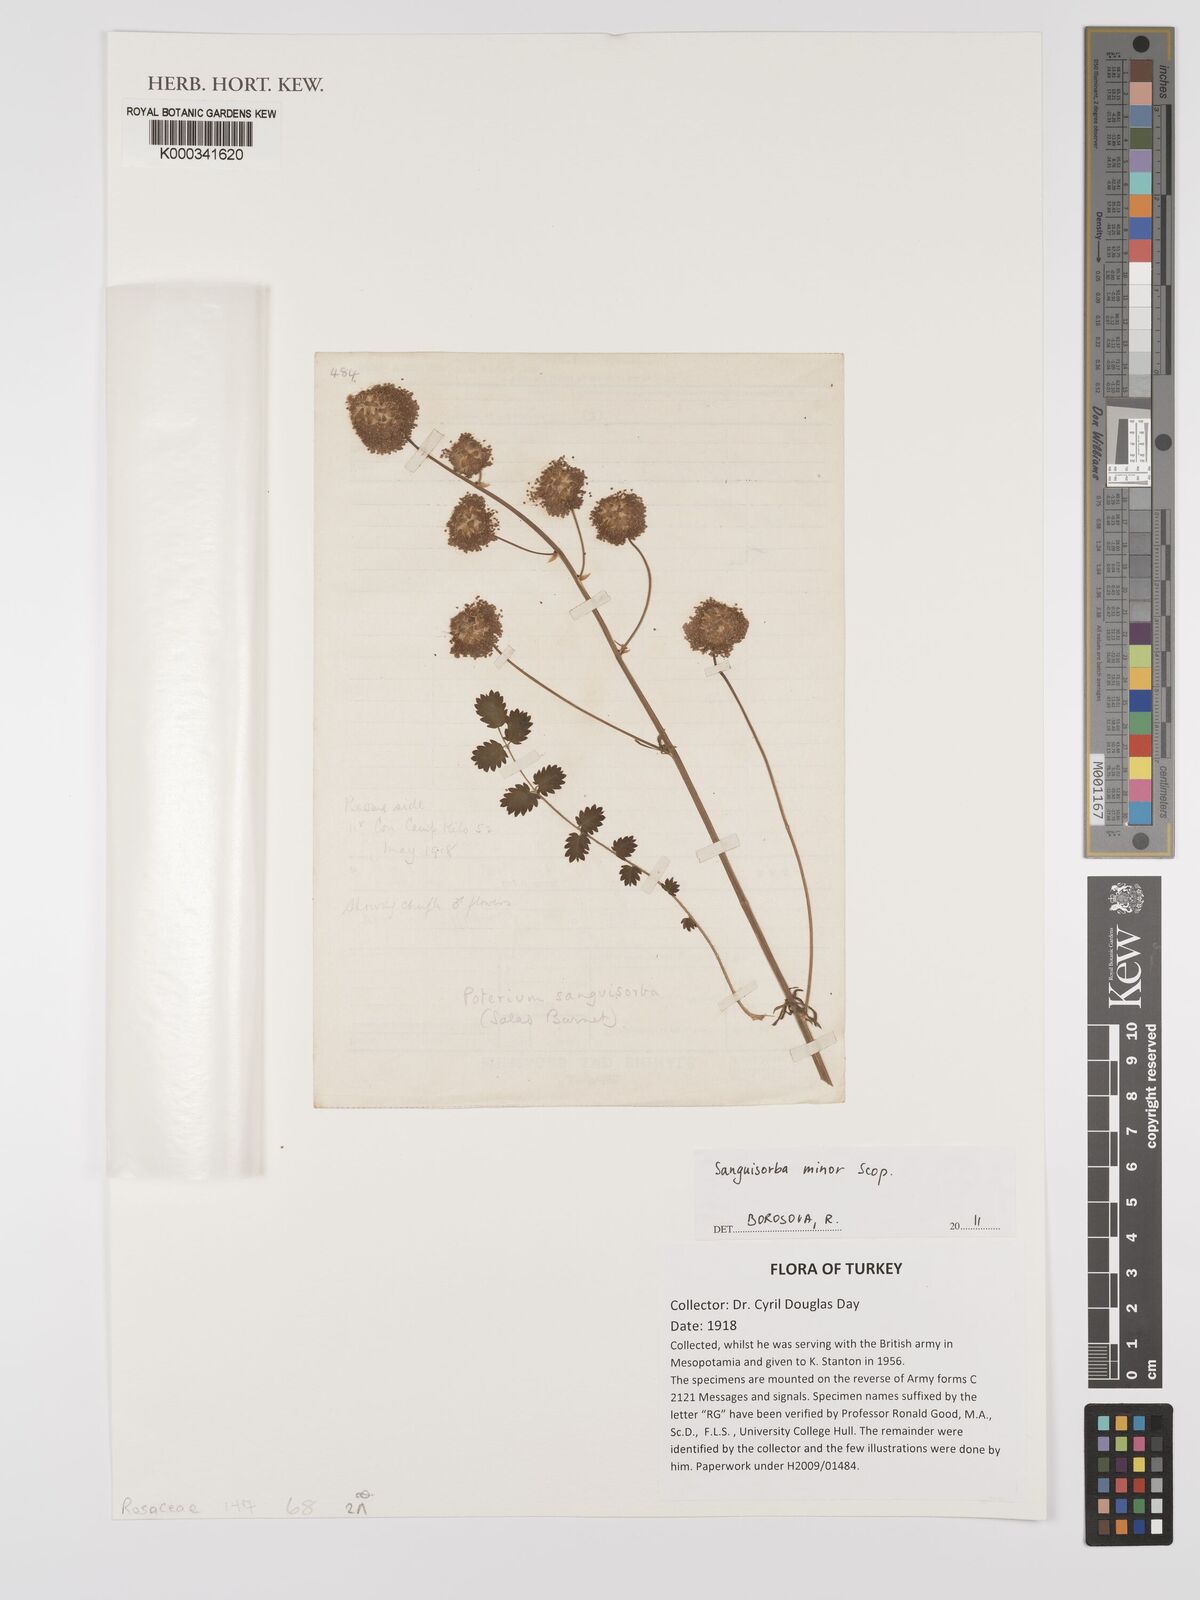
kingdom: Plantae
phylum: Tracheophyta
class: Magnoliopsida
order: Rosales
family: Rosaceae
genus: Poterium
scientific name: Poterium sanguisorba
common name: Salad burnet
